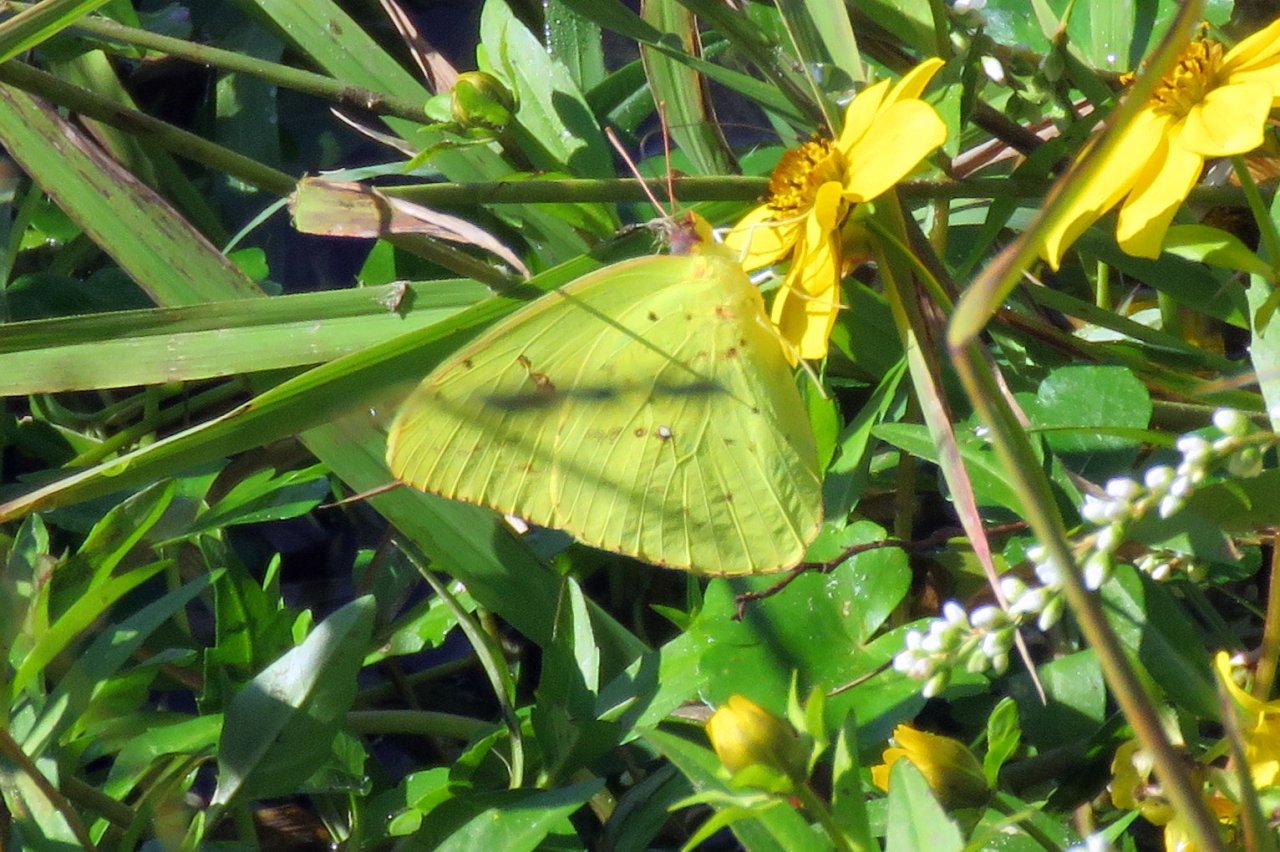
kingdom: Animalia
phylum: Arthropoda
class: Insecta
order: Lepidoptera
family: Pieridae
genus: Phoebis
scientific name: Phoebis sennae
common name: Cloudless Sulphur
